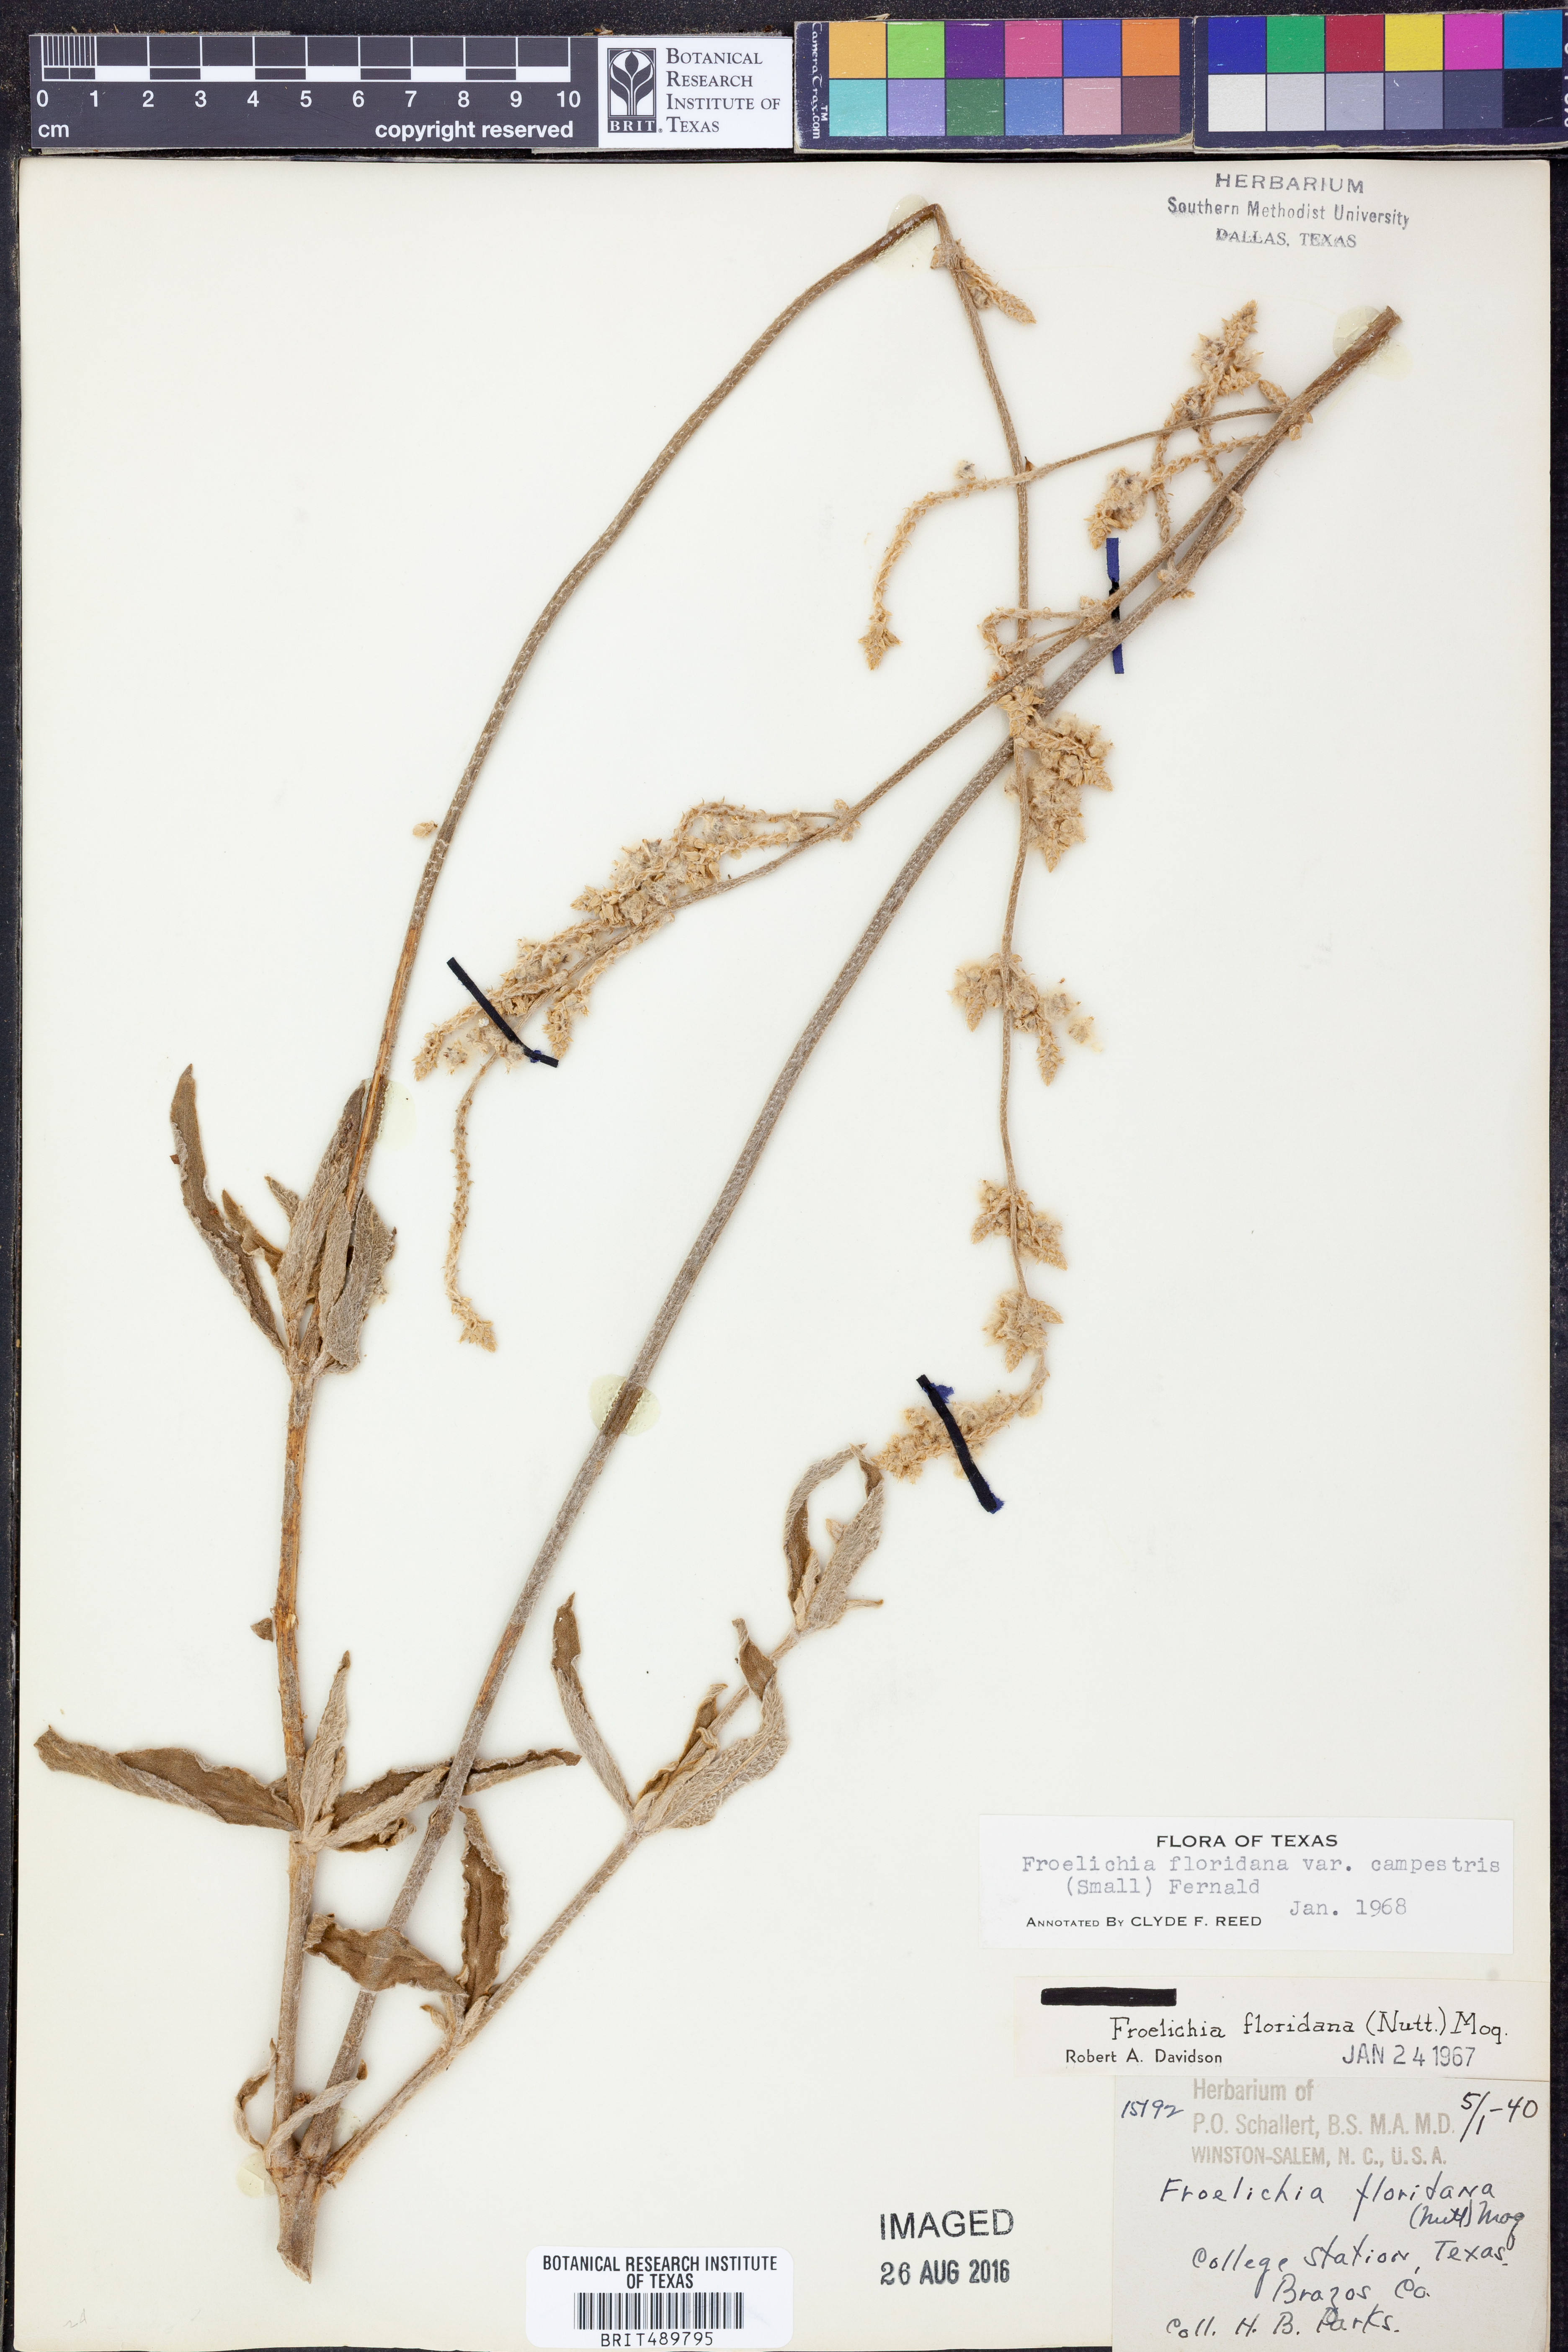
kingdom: Plantae
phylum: Tracheophyta
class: Magnoliopsida
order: Caryophyllales
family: Amaranthaceae
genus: Froelichia
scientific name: Froelichia floridana
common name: Florida snake-cotton
